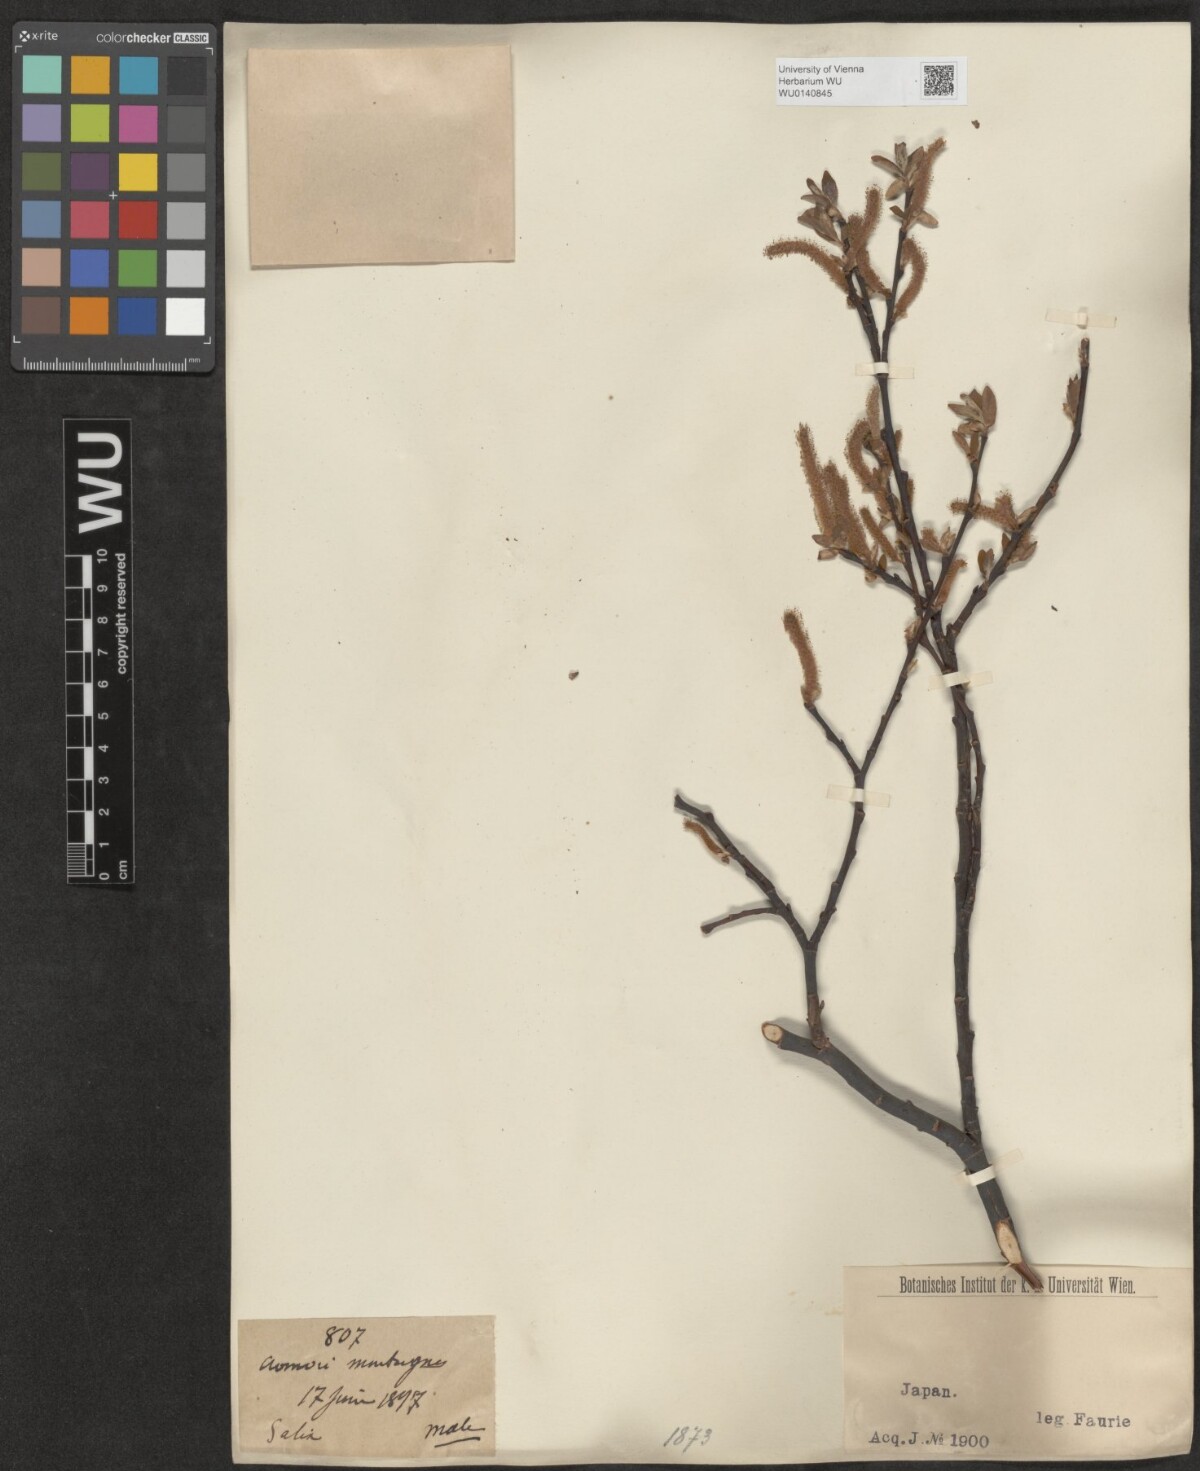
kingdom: Plantae
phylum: Tracheophyta
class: Magnoliopsida
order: Malpighiales
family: Salicaceae
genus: Salix
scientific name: Salix
